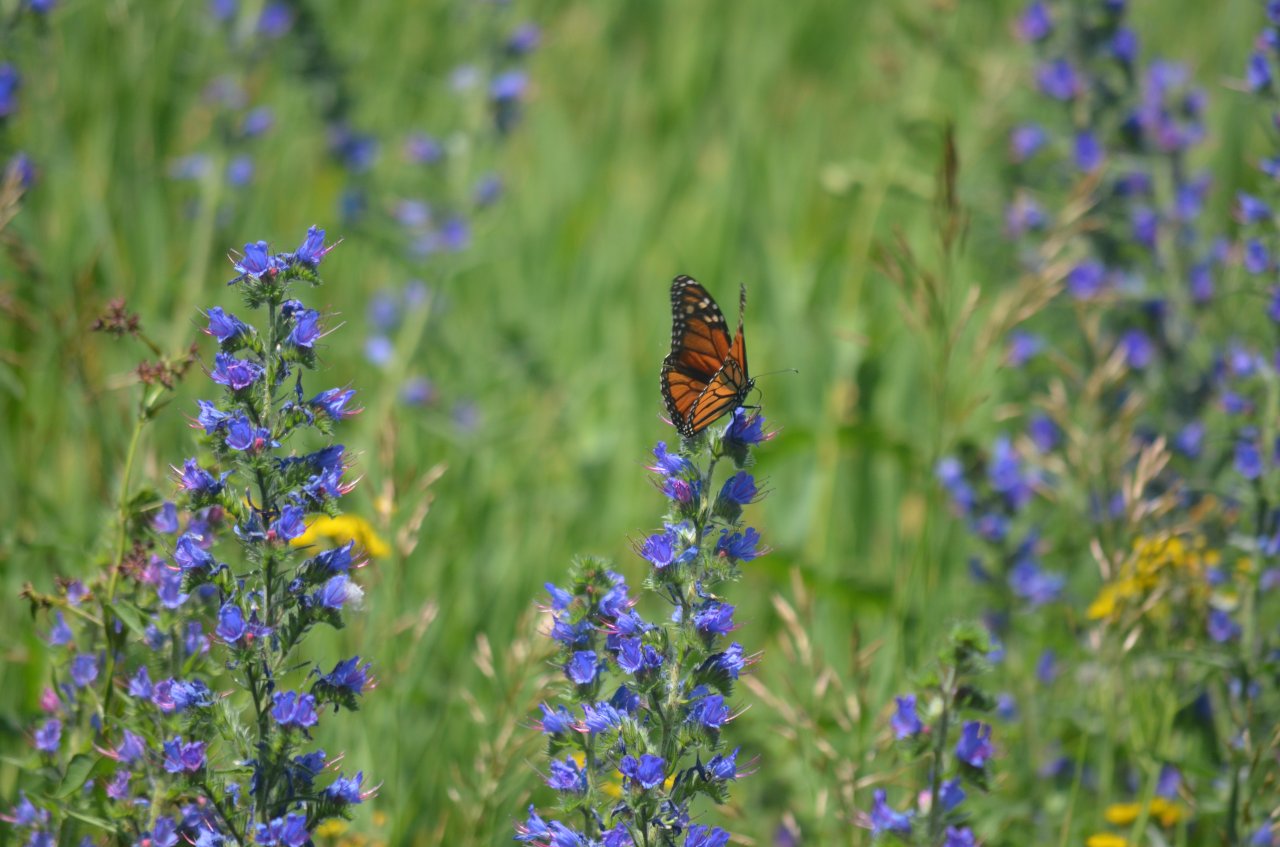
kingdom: Animalia
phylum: Arthropoda
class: Insecta
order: Lepidoptera
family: Nymphalidae
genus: Danaus
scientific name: Danaus plexippus
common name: Monarch
